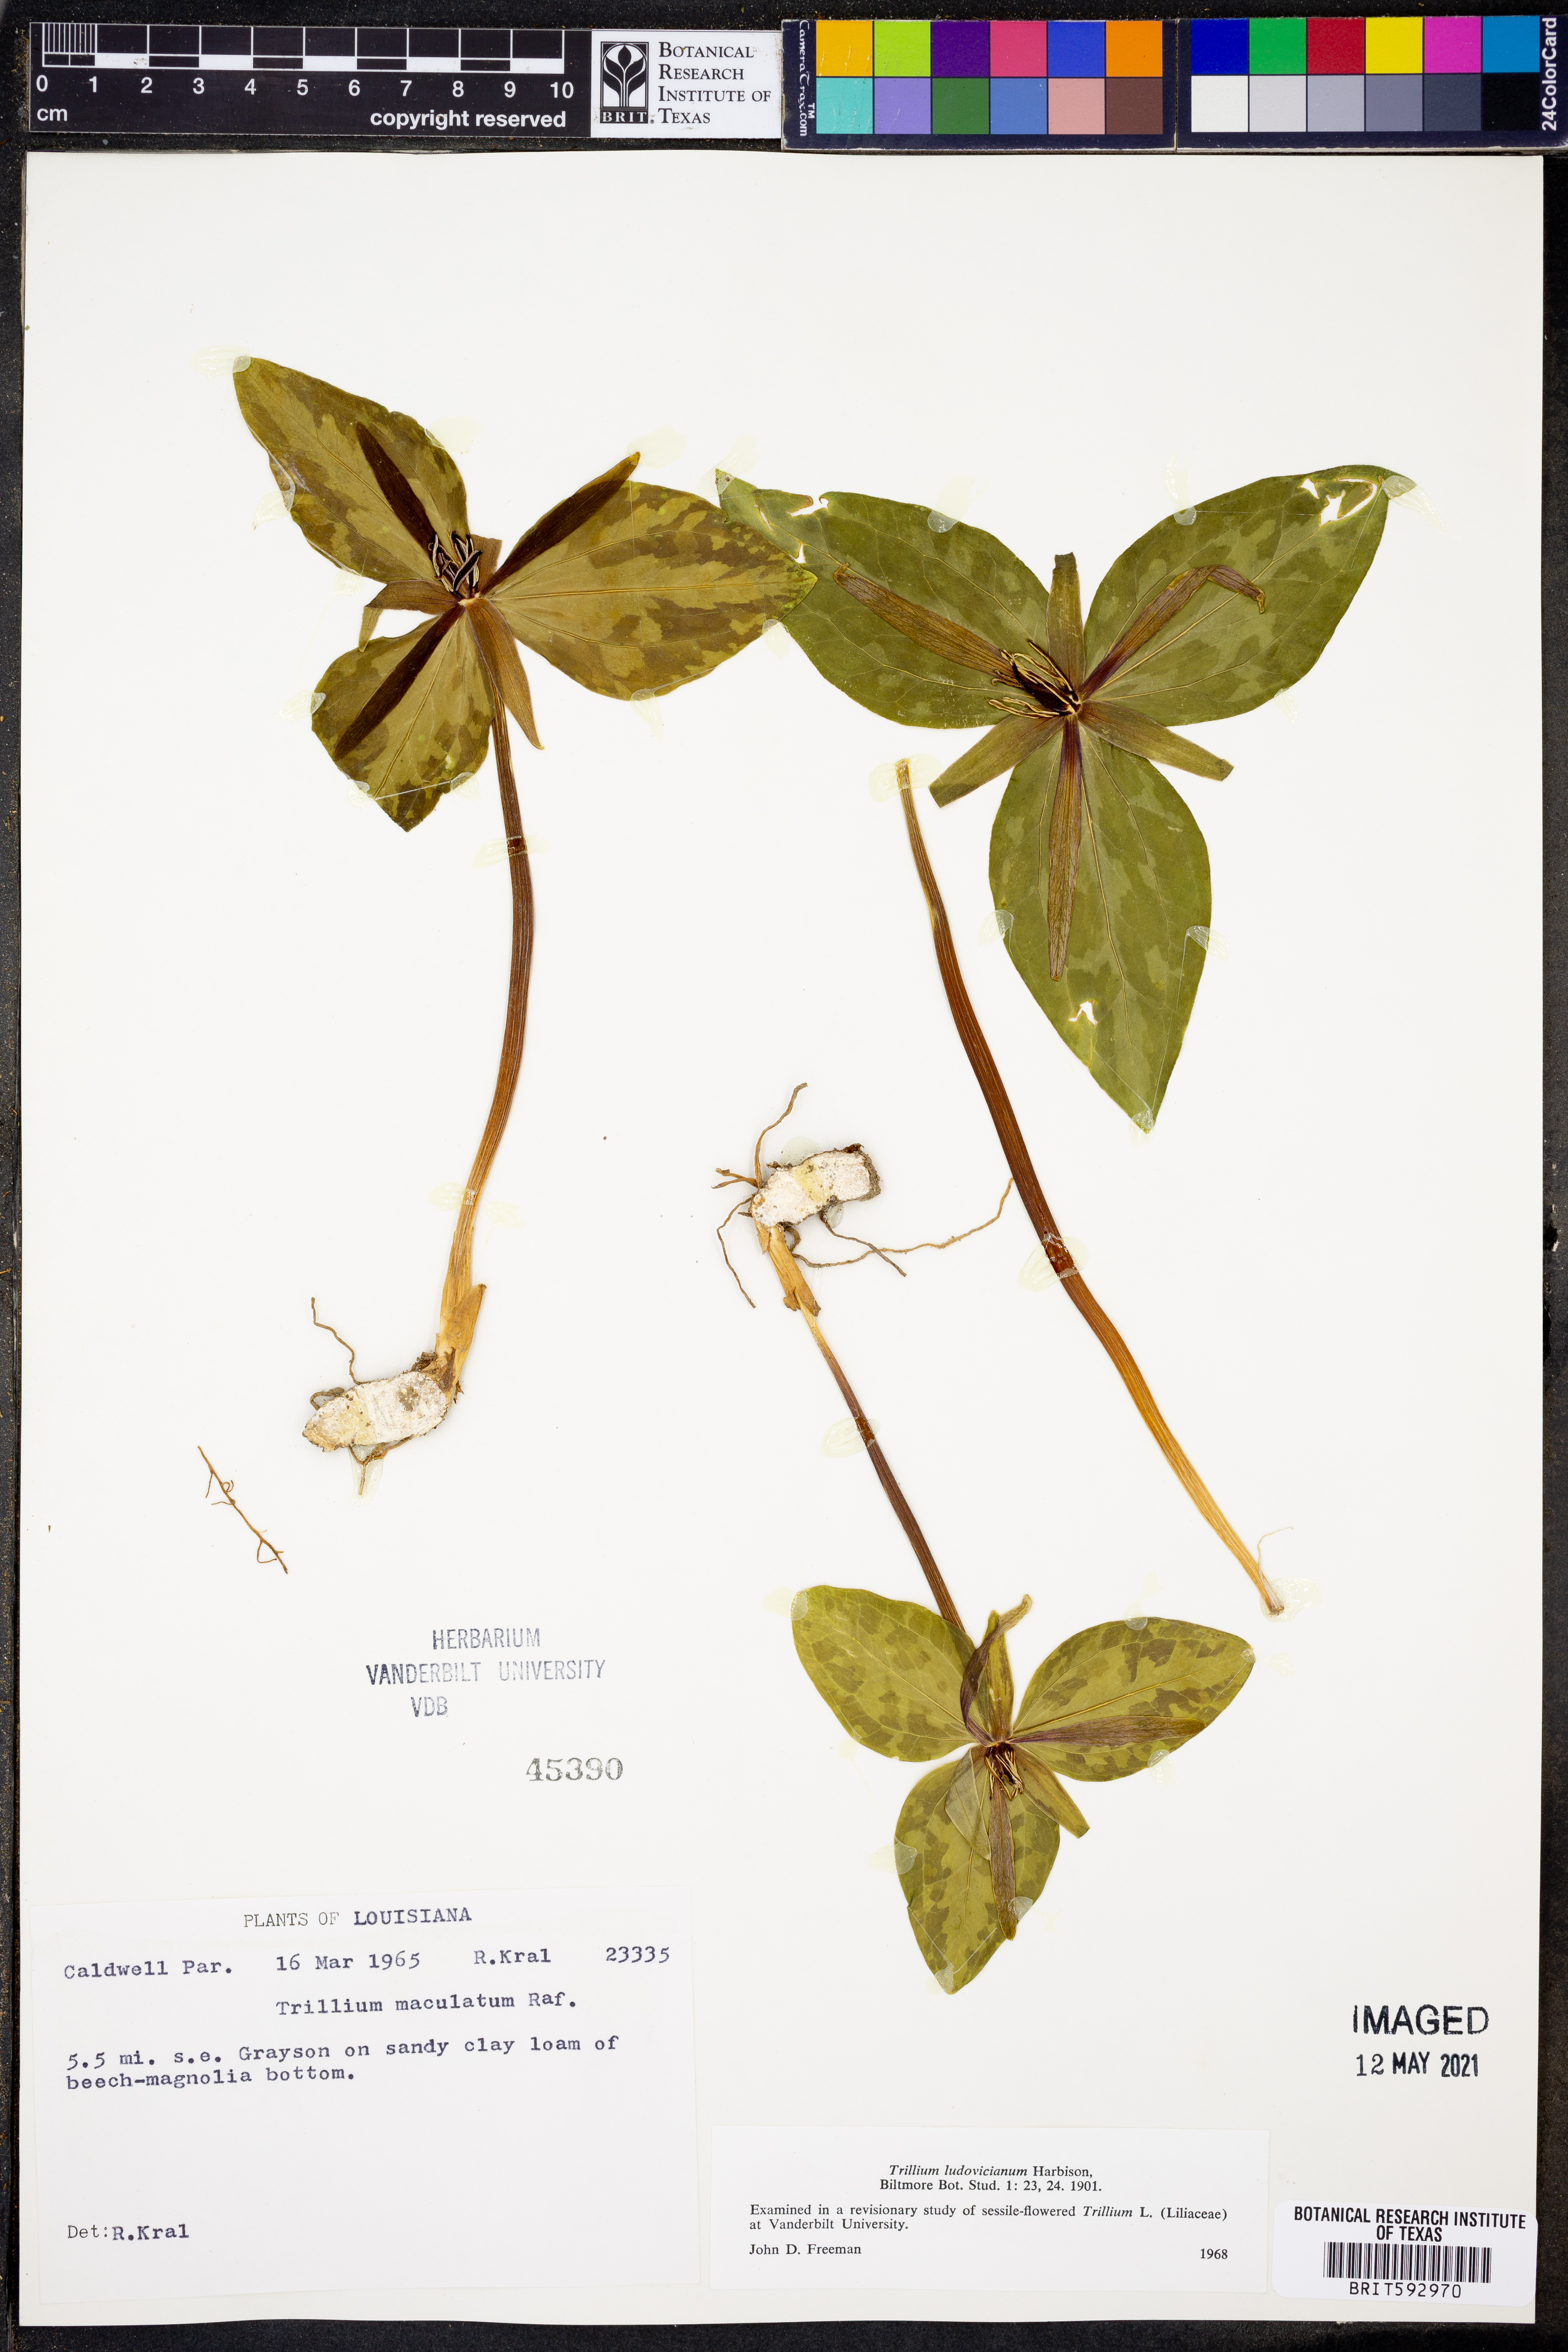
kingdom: Plantae
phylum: Tracheophyta
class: Liliopsida
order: Liliales
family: Melanthiaceae
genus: Trillium
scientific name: Trillium ludovicianum
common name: Louisiana toadshade
